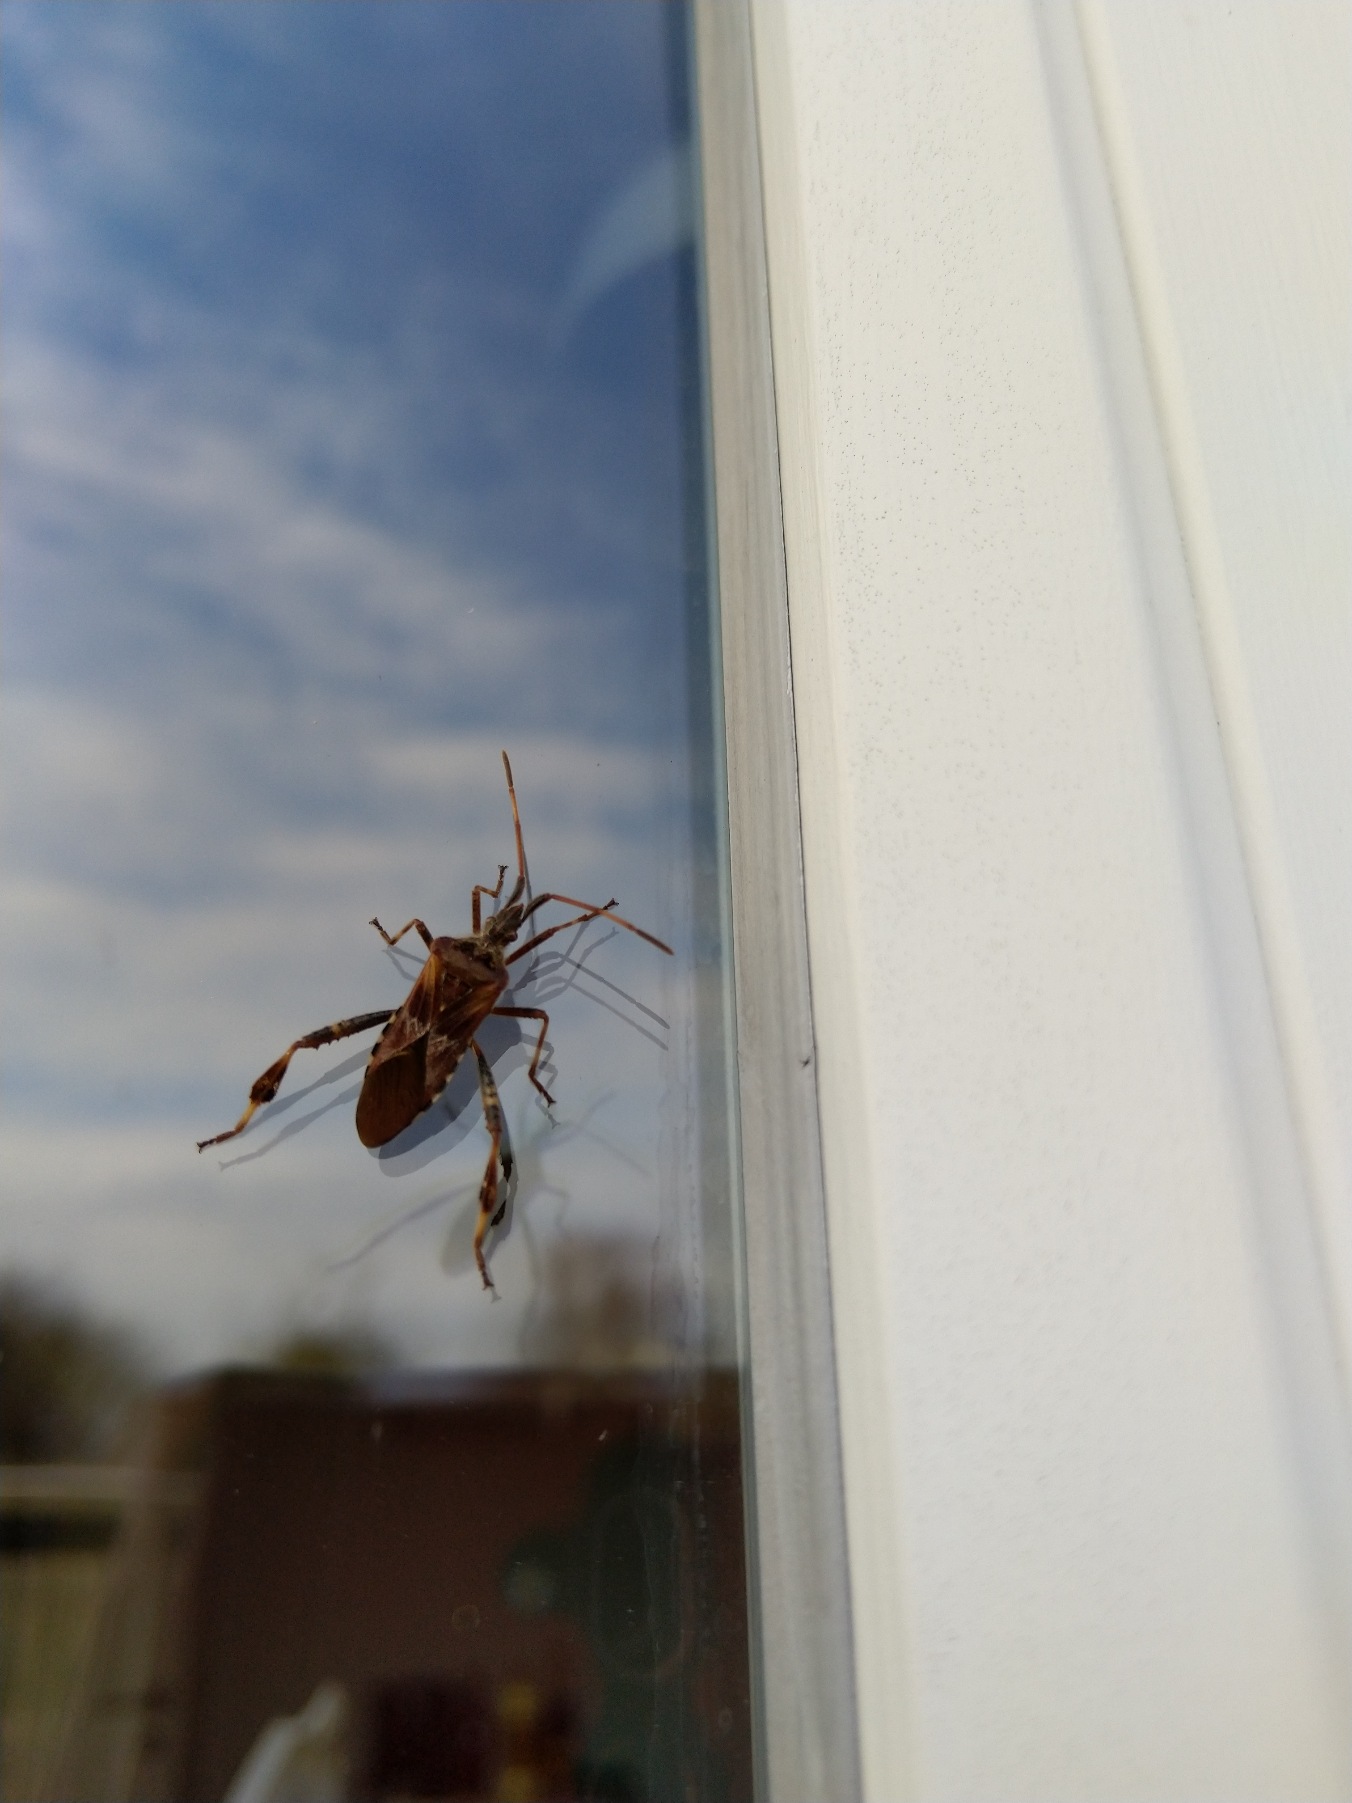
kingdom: Animalia
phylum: Arthropoda
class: Insecta
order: Hemiptera
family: Coreidae
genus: Leptoglossus
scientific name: Leptoglossus occidentalis
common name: Amerikansk fyrretæge
